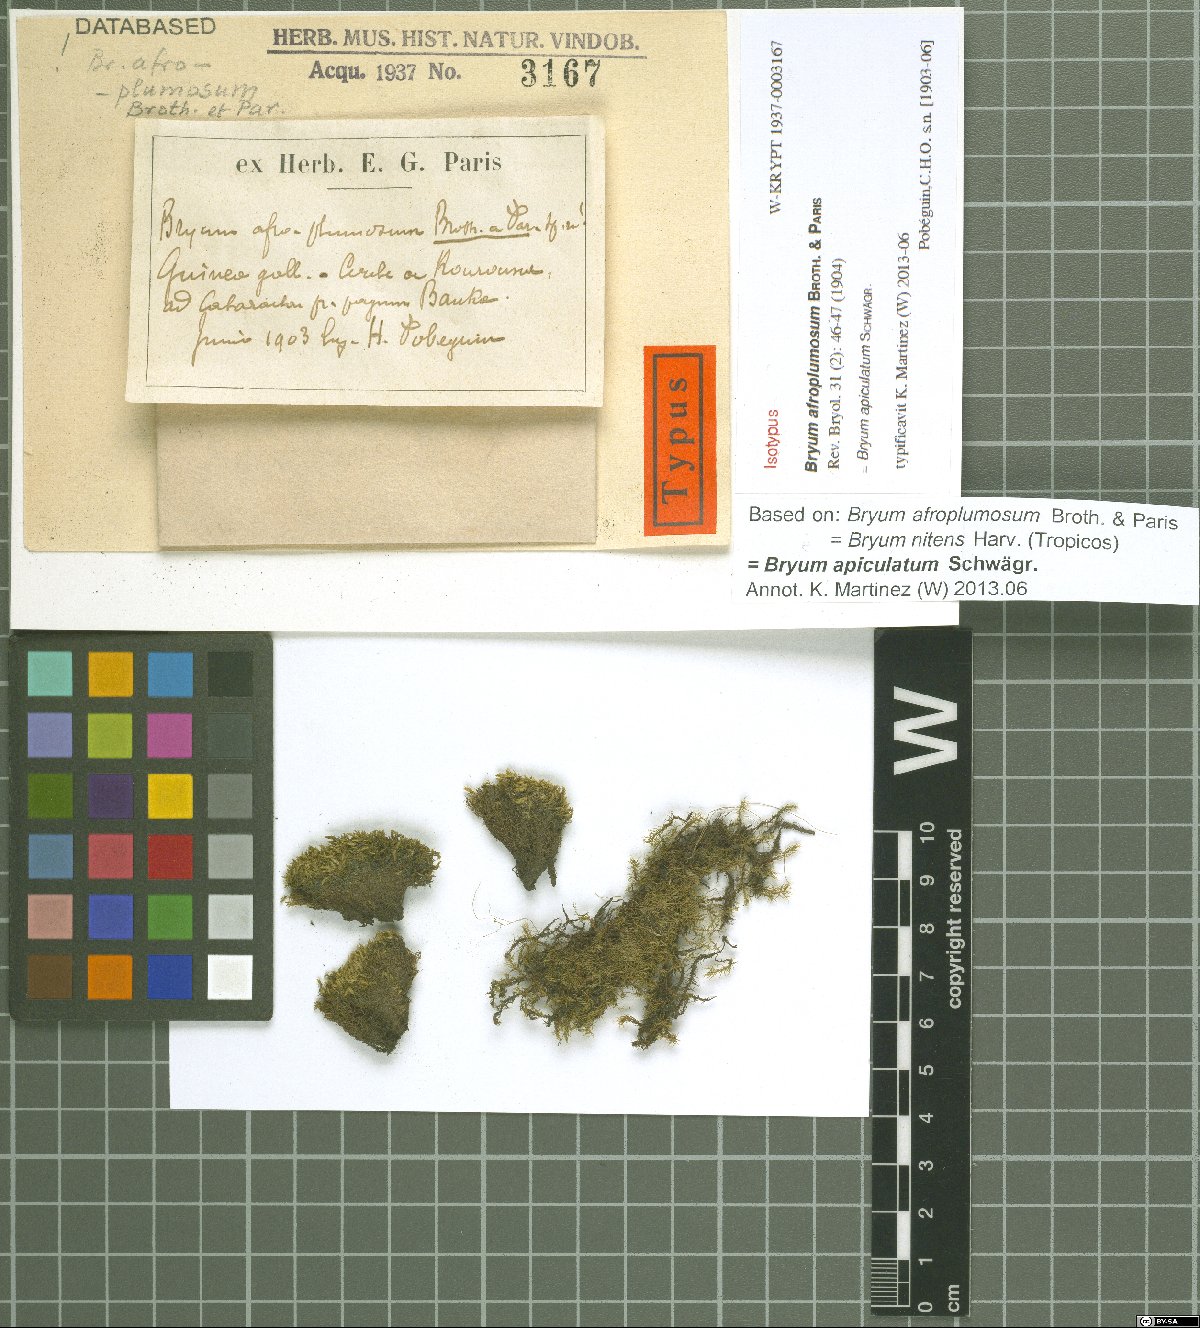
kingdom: Plantae
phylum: Bryophyta
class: Bryopsida
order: Bryales
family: Bryaceae
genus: Gemmabryum
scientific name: Gemmabryum apiculatum
